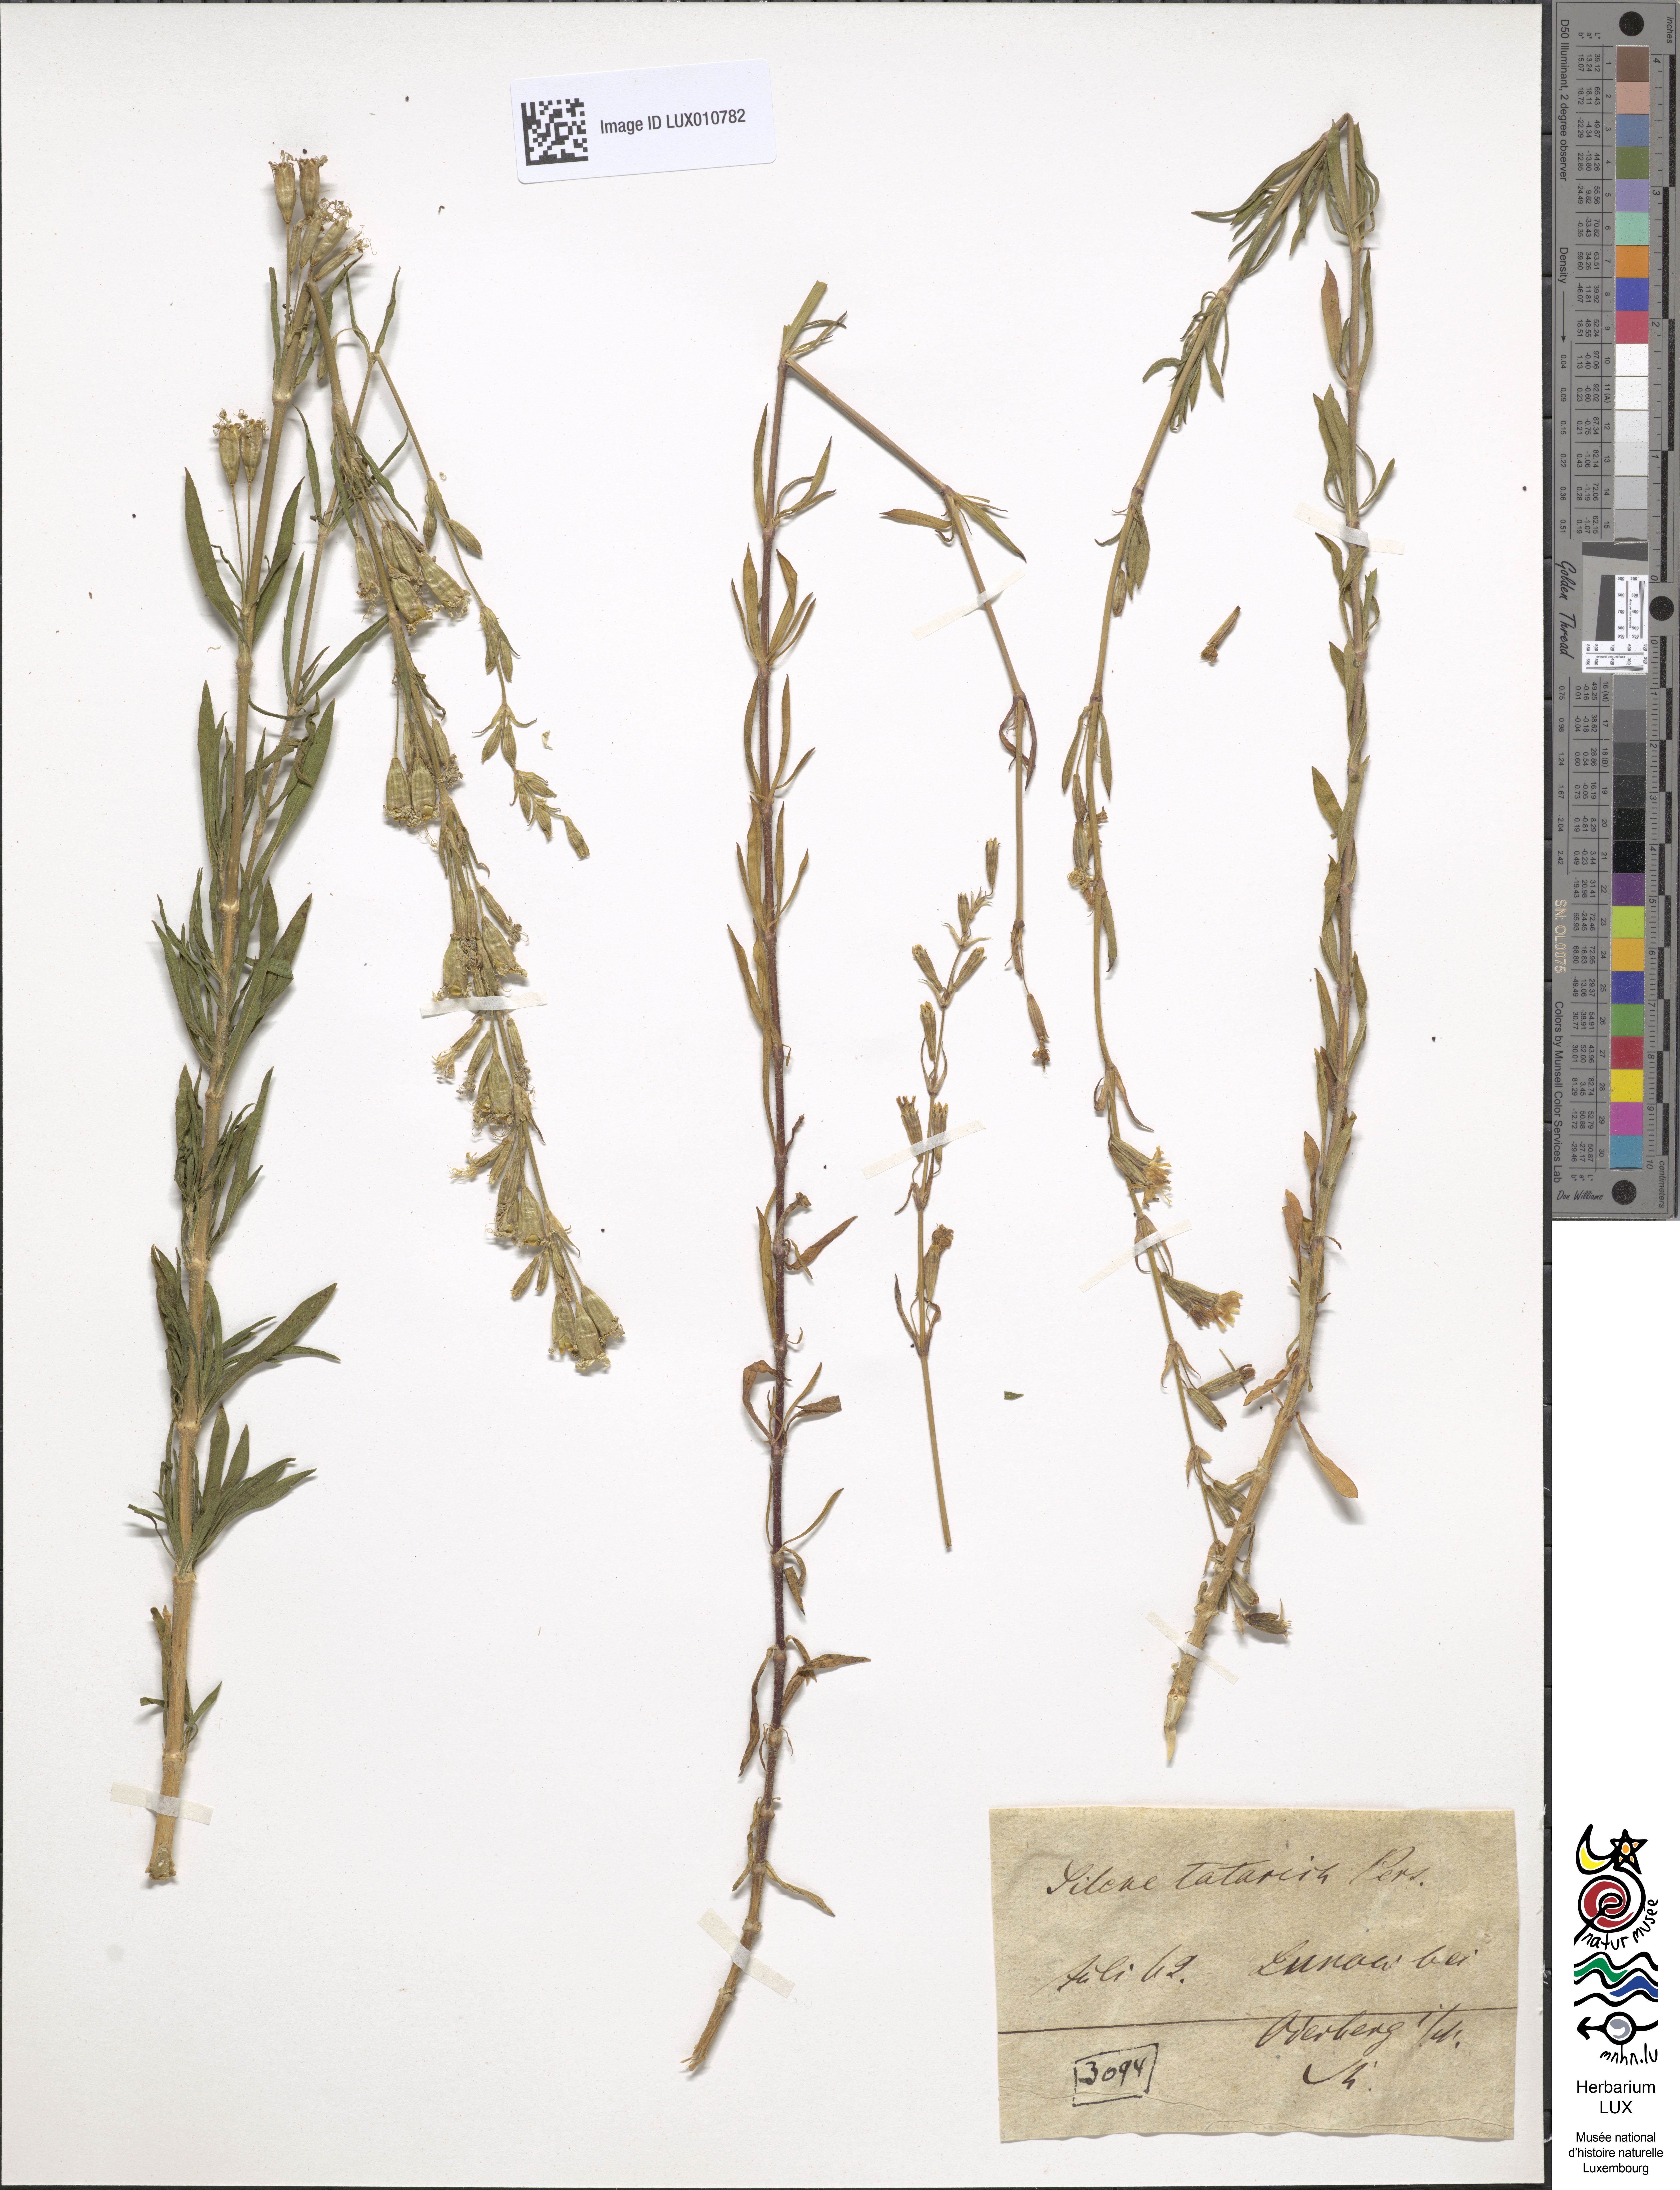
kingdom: Plantae
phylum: Tracheophyta
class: Magnoliopsida
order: Caryophyllales
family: Caryophyllaceae
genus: Silene
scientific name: Silene tatarica
